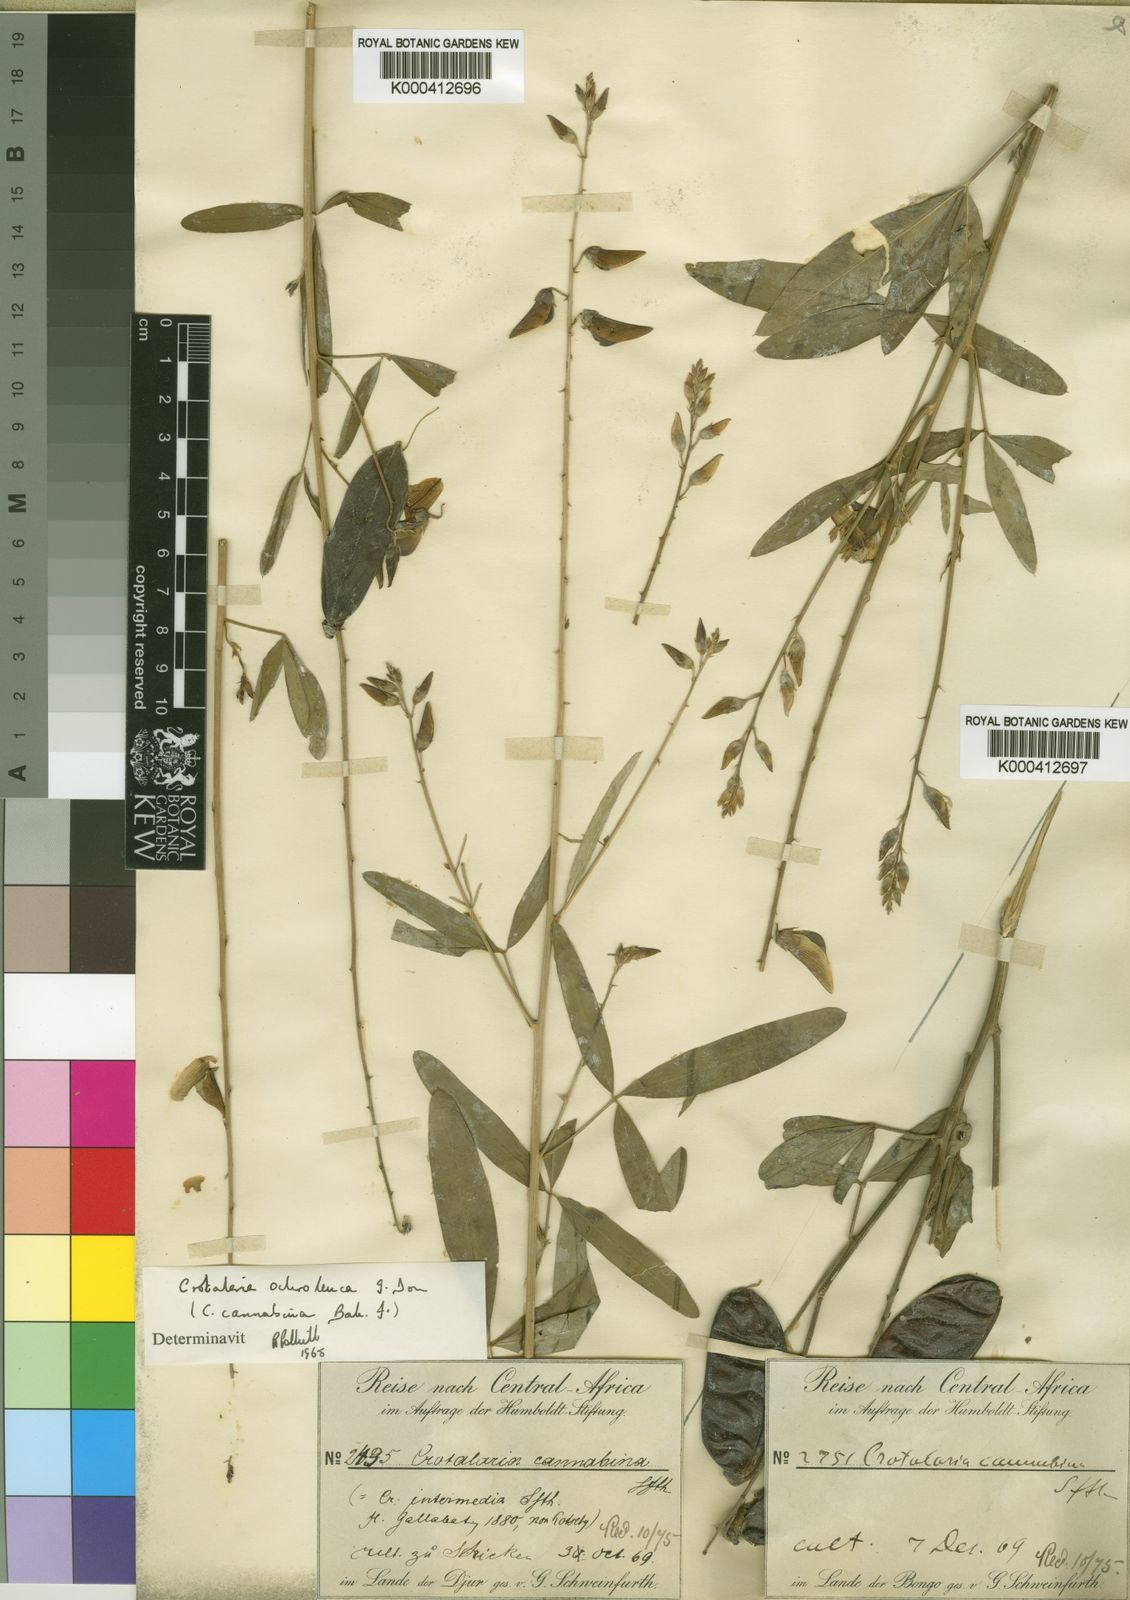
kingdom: Plantae
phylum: Tracheophyta
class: Magnoliopsida
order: Fabales
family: Fabaceae
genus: Crotalaria
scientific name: Crotalaria ochroleuca
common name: Slender leaf rattlebox
